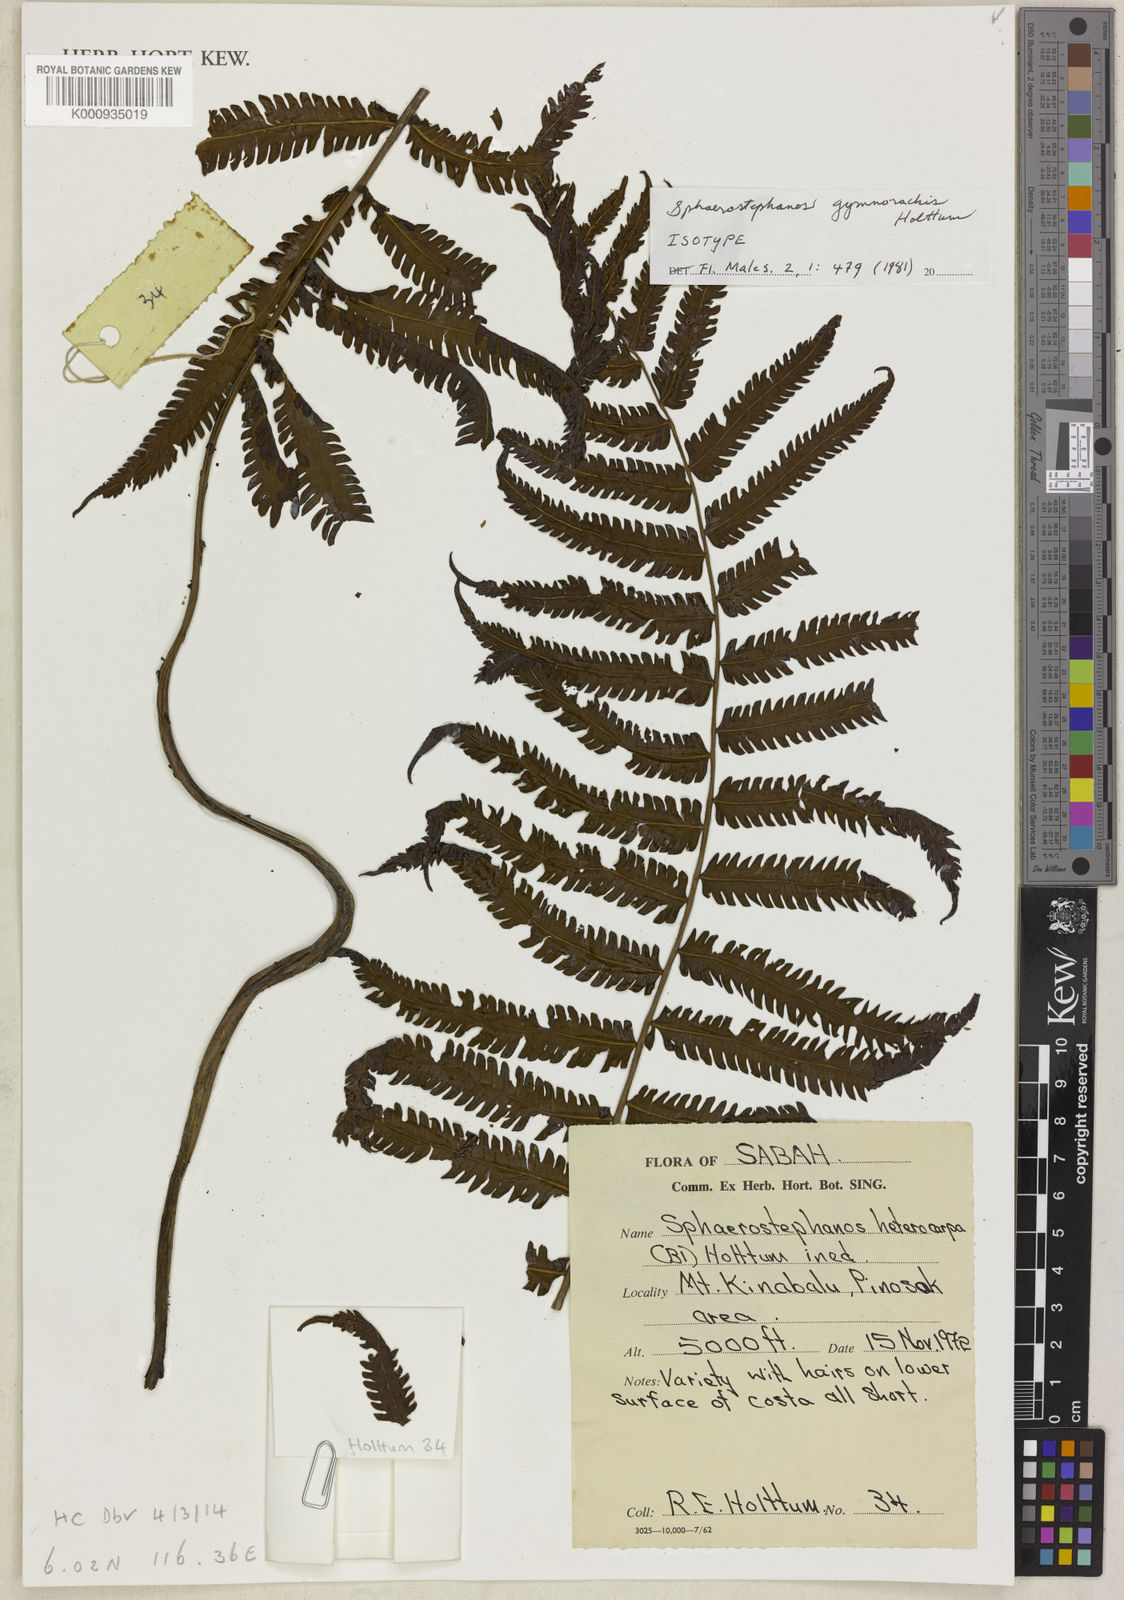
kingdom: Plantae
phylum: Tracheophyta
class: Polypodiopsida
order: Polypodiales
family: Thelypteridaceae
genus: Sphaerostephanos
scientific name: Sphaerostephanos gymnorachis
